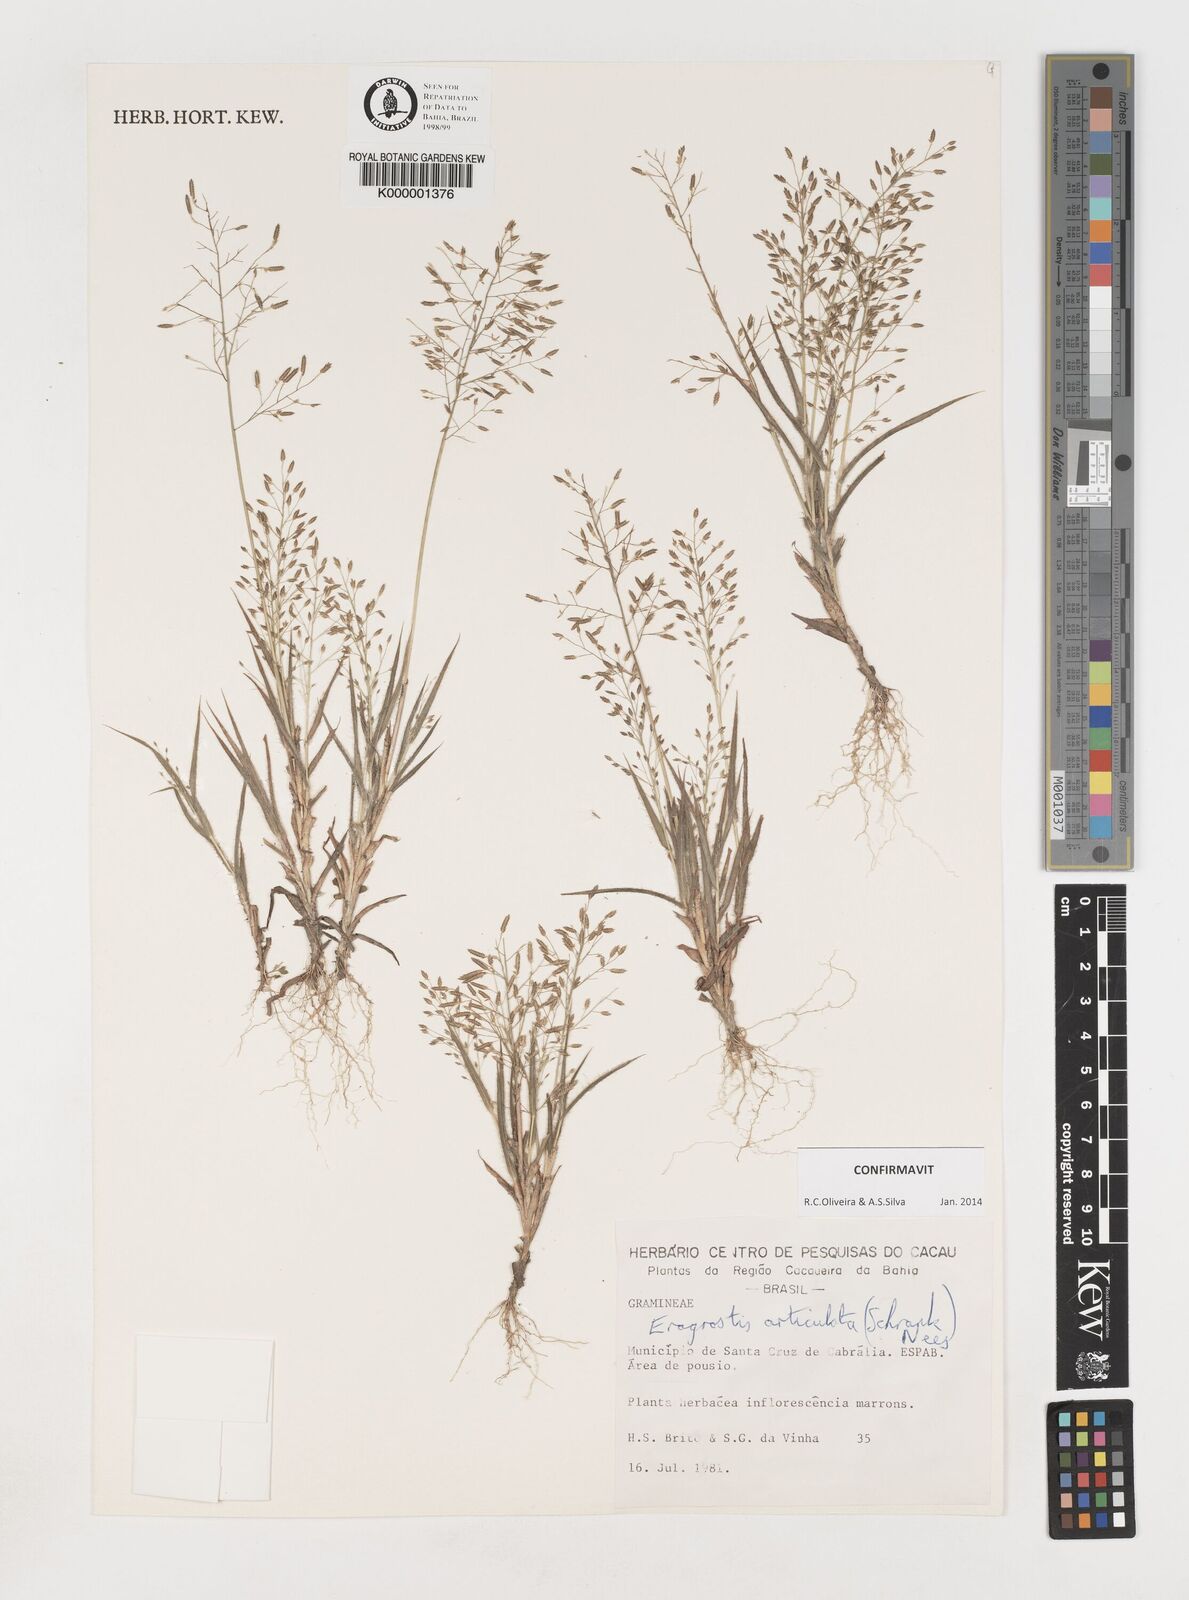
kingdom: Plantae
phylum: Tracheophyta
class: Liliopsida
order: Poales
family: Poaceae
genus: Eragrostis
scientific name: Eragrostis articulata
